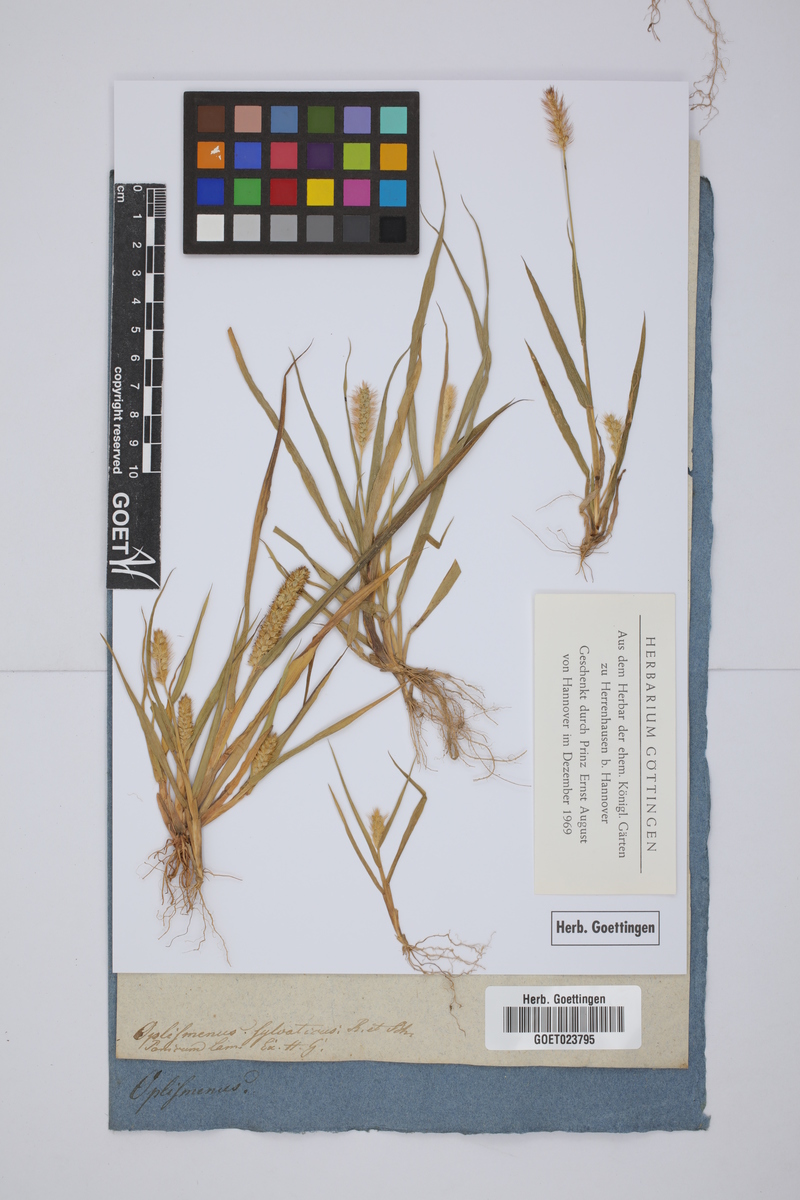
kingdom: Plantae
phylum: Tracheophyta
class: Liliopsida
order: Poales
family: Poaceae
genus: Oplismenus
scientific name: Oplismenus compositus
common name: Running mountain grass
